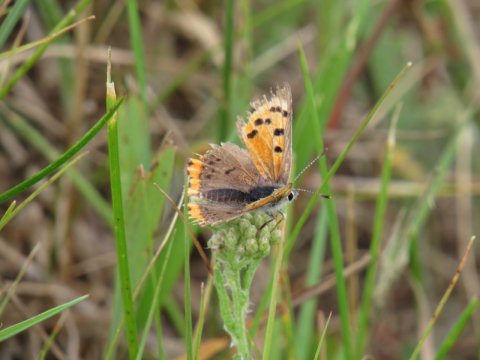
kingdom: Animalia
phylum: Arthropoda
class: Insecta
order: Lepidoptera
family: Lycaenidae
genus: Lycaena
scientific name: Lycaena phlaeas
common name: American Copper
